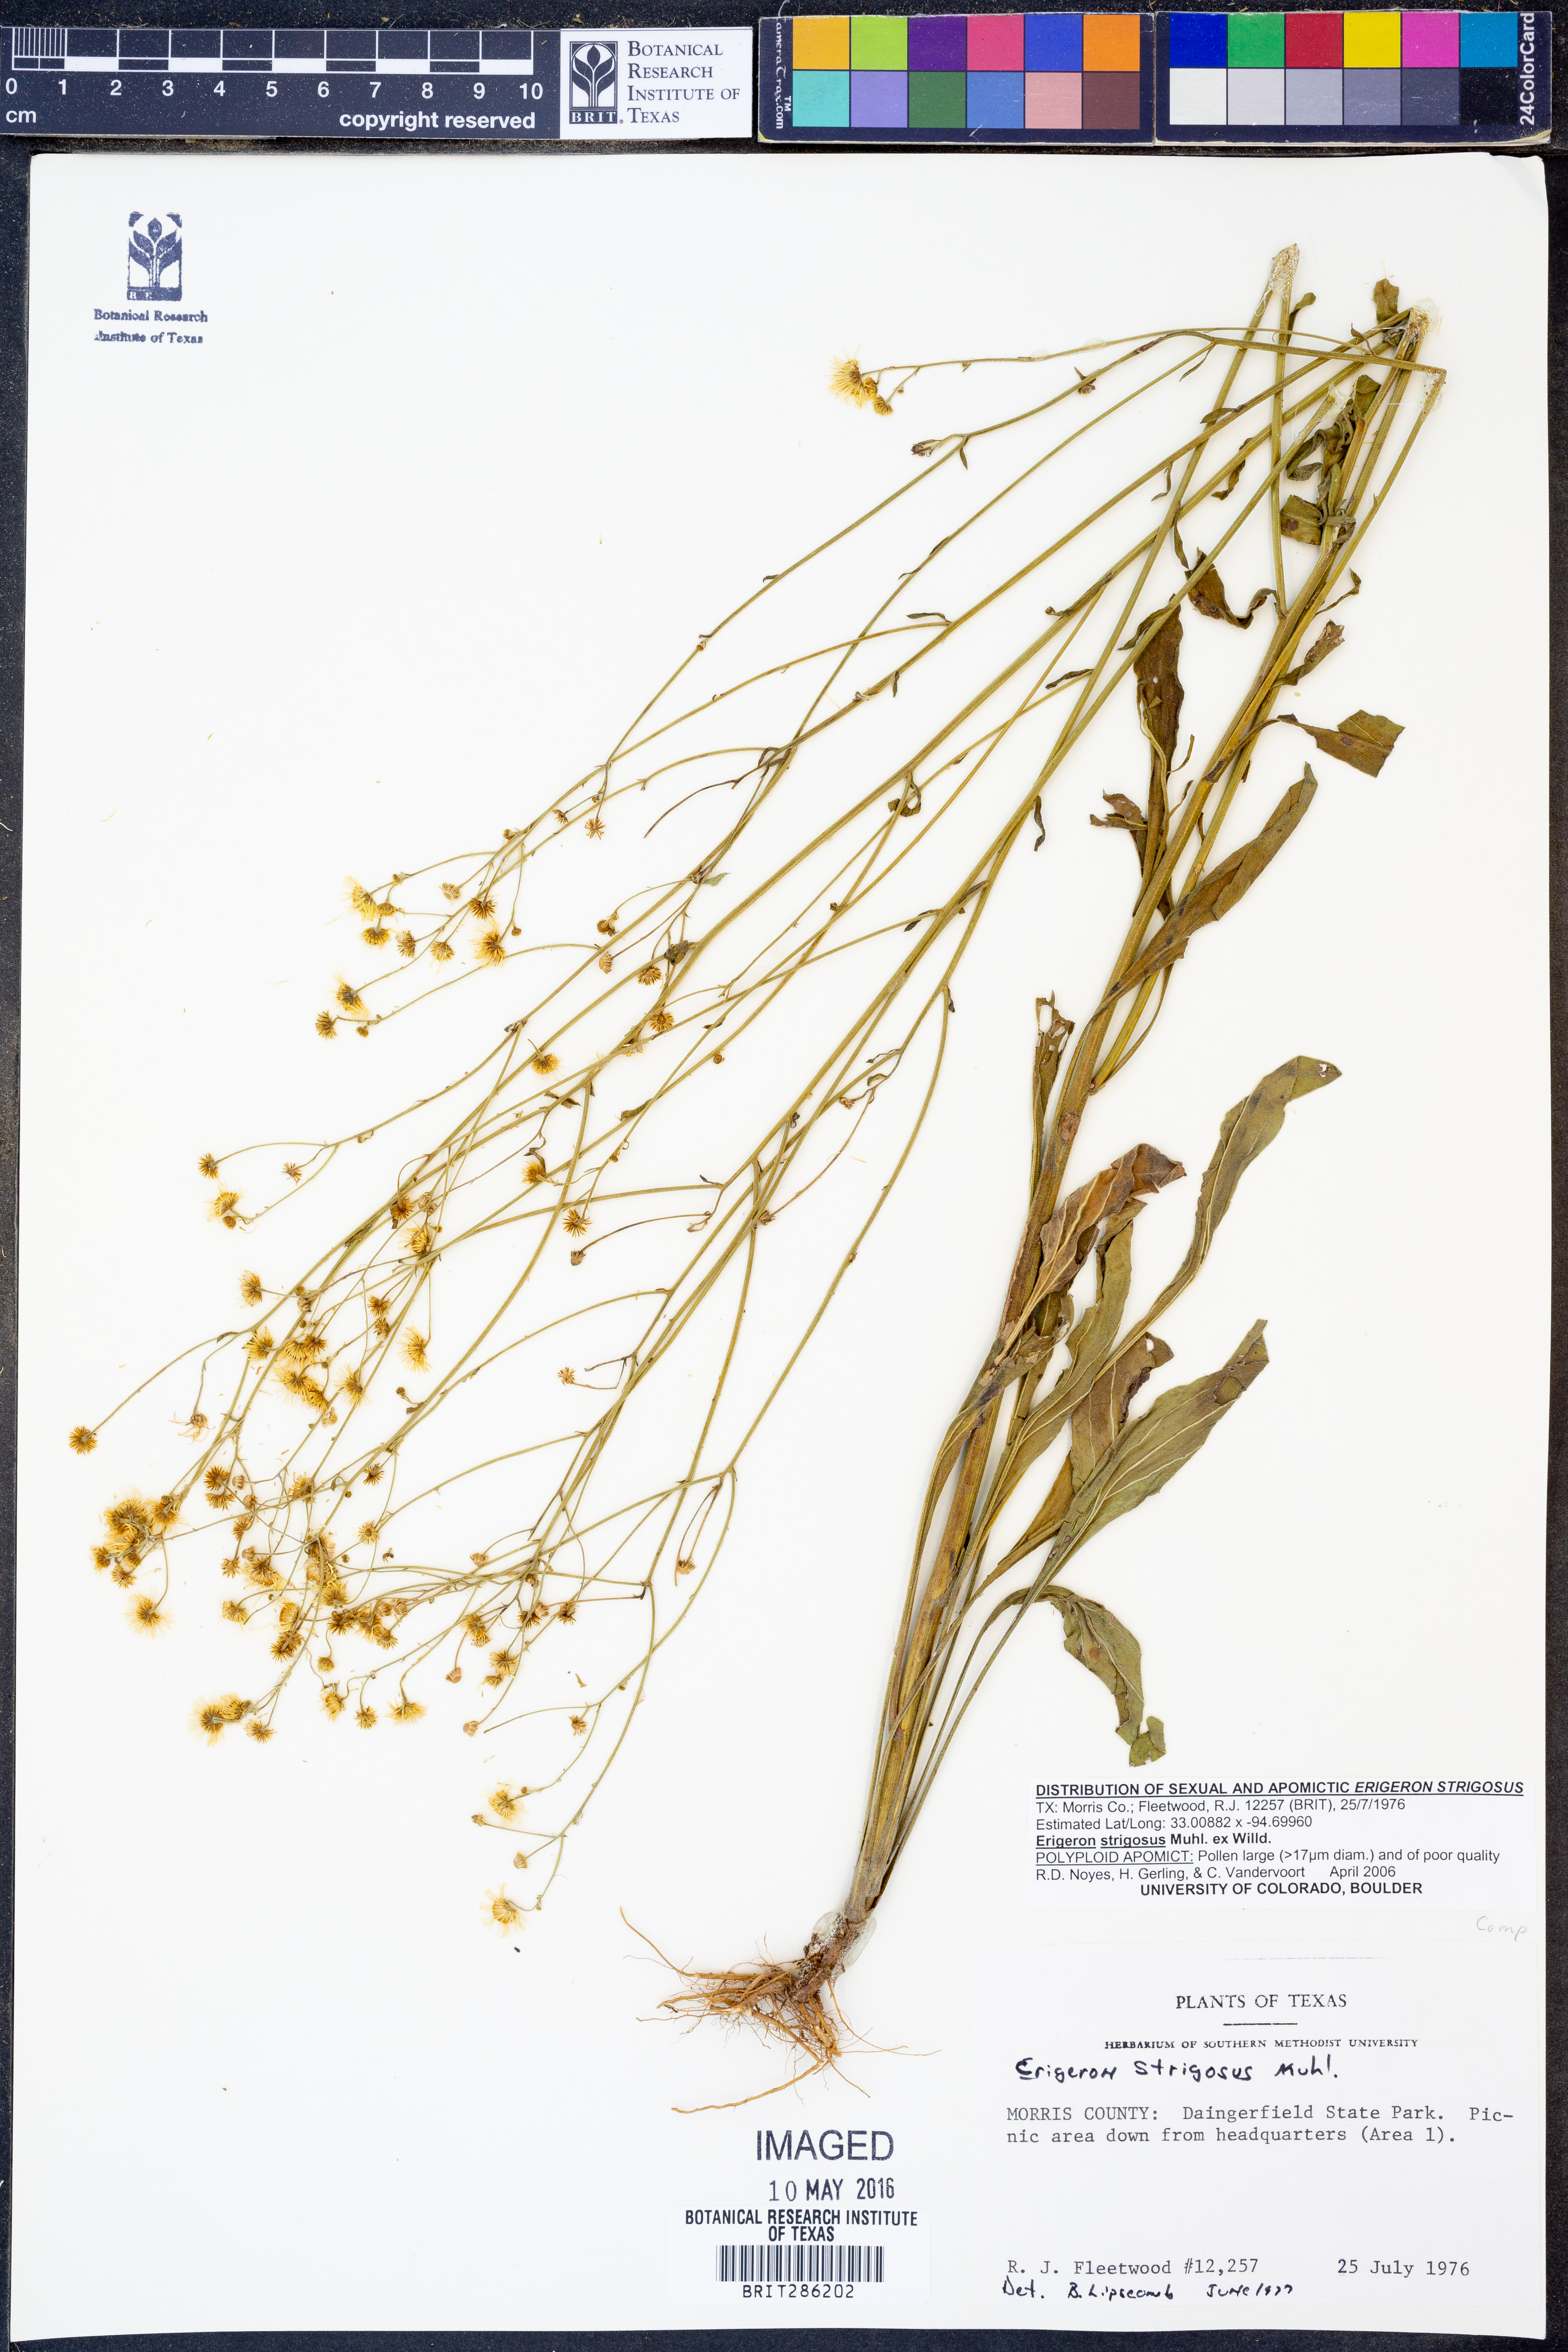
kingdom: Plantae
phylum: Tracheophyta
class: Magnoliopsida
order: Asterales
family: Asteraceae
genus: Erigeron
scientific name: Erigeron strigosus
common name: Common eastern fleabane
